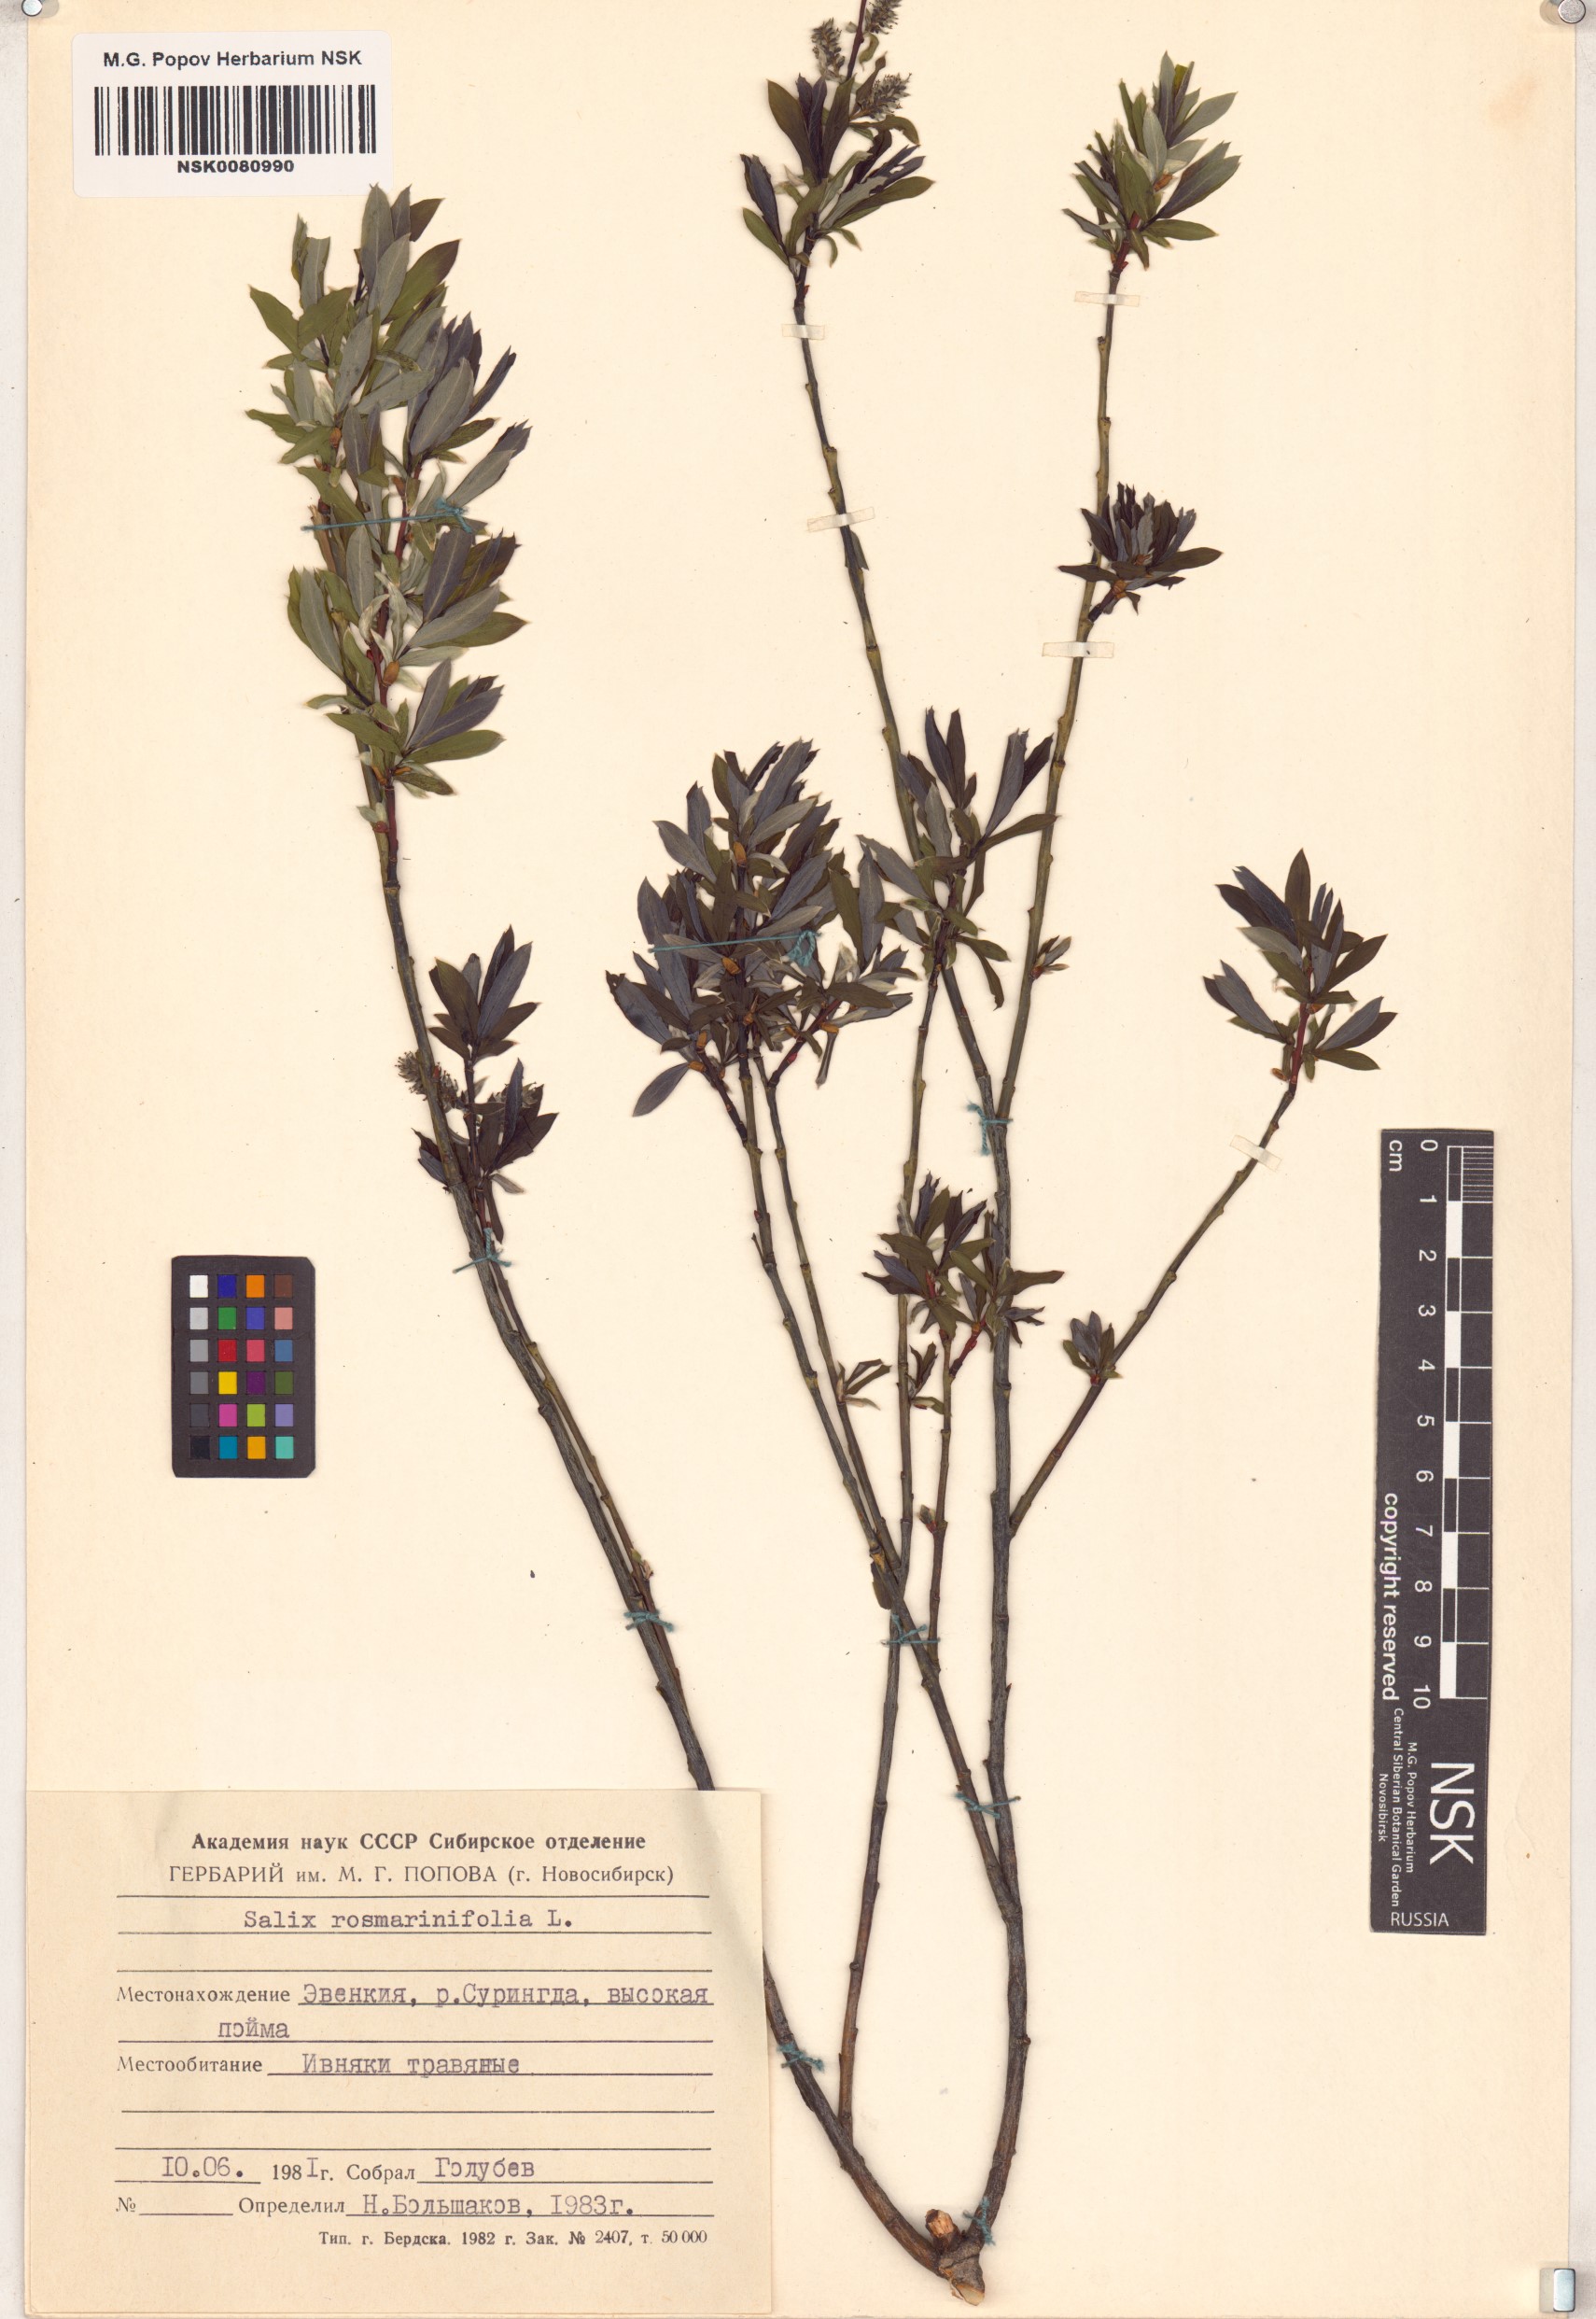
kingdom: Plantae
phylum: Tracheophyta
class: Magnoliopsida
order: Malpighiales
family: Salicaceae
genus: Salix
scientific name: Salix rosmarinifolia
